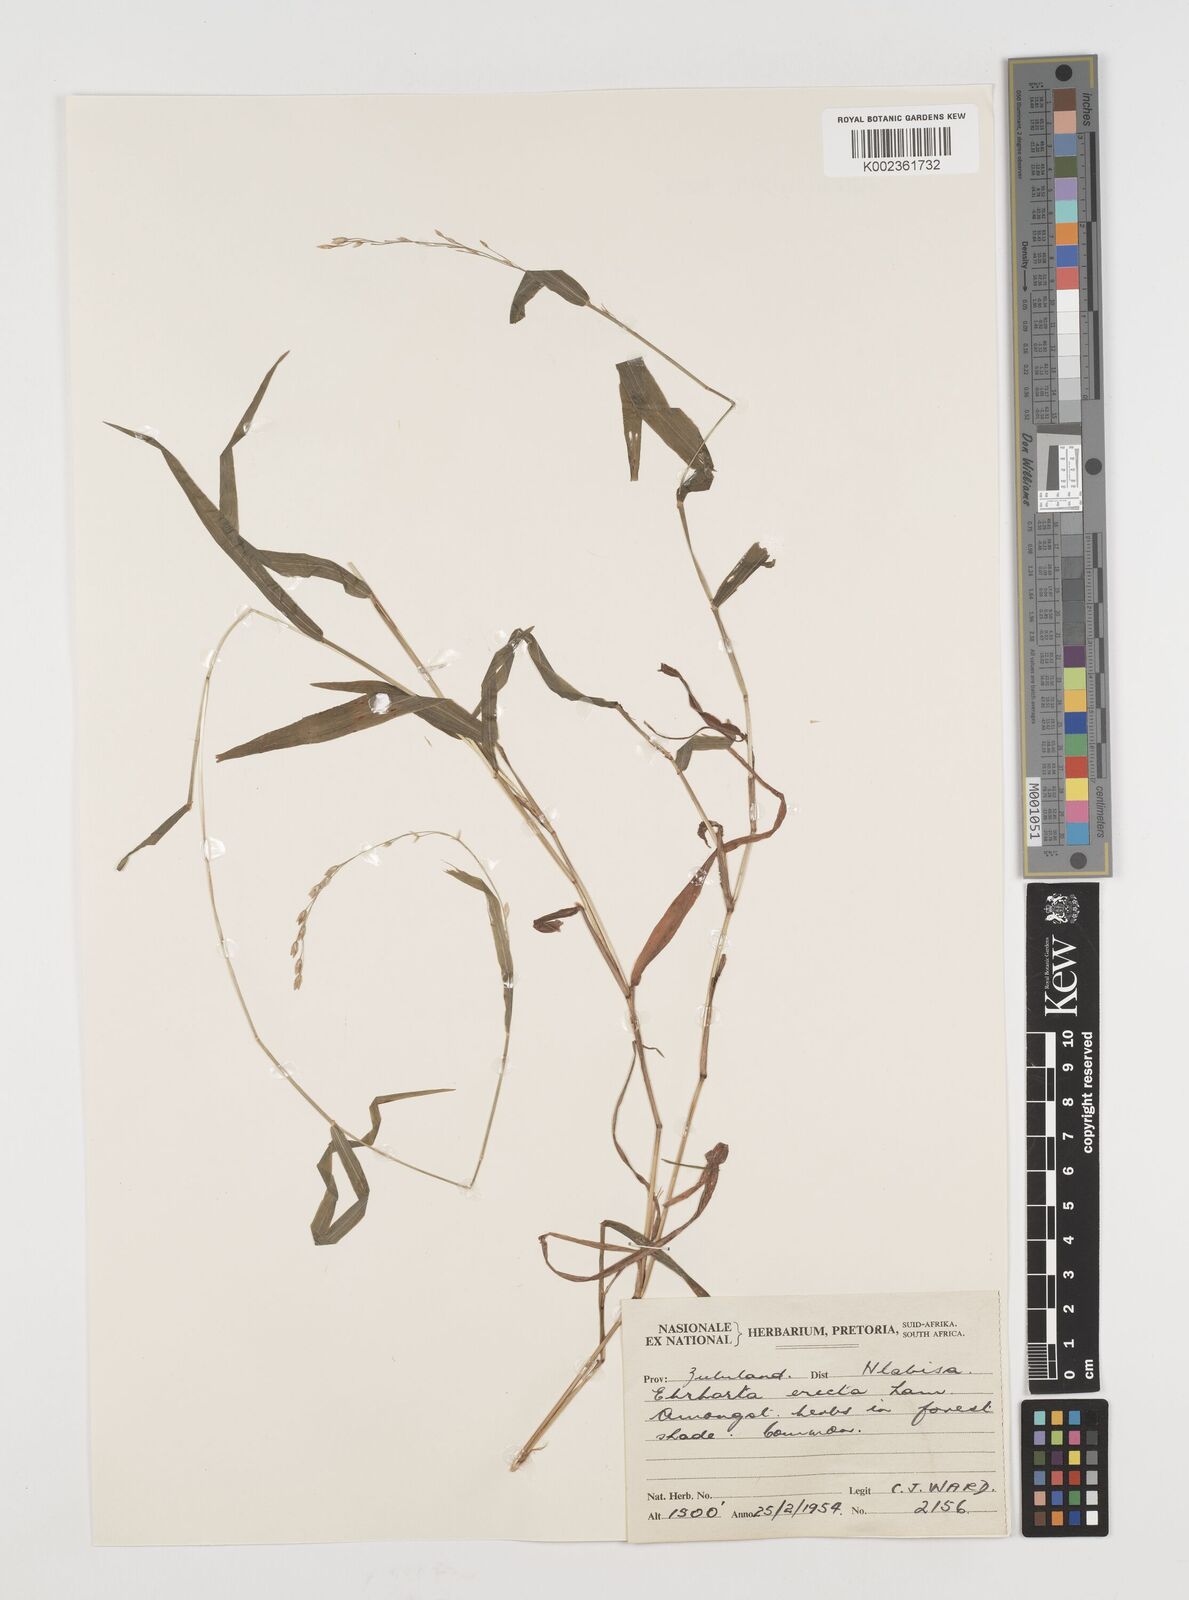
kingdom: Plantae
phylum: Tracheophyta
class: Liliopsida
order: Poales
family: Poaceae
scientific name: Poaceae
